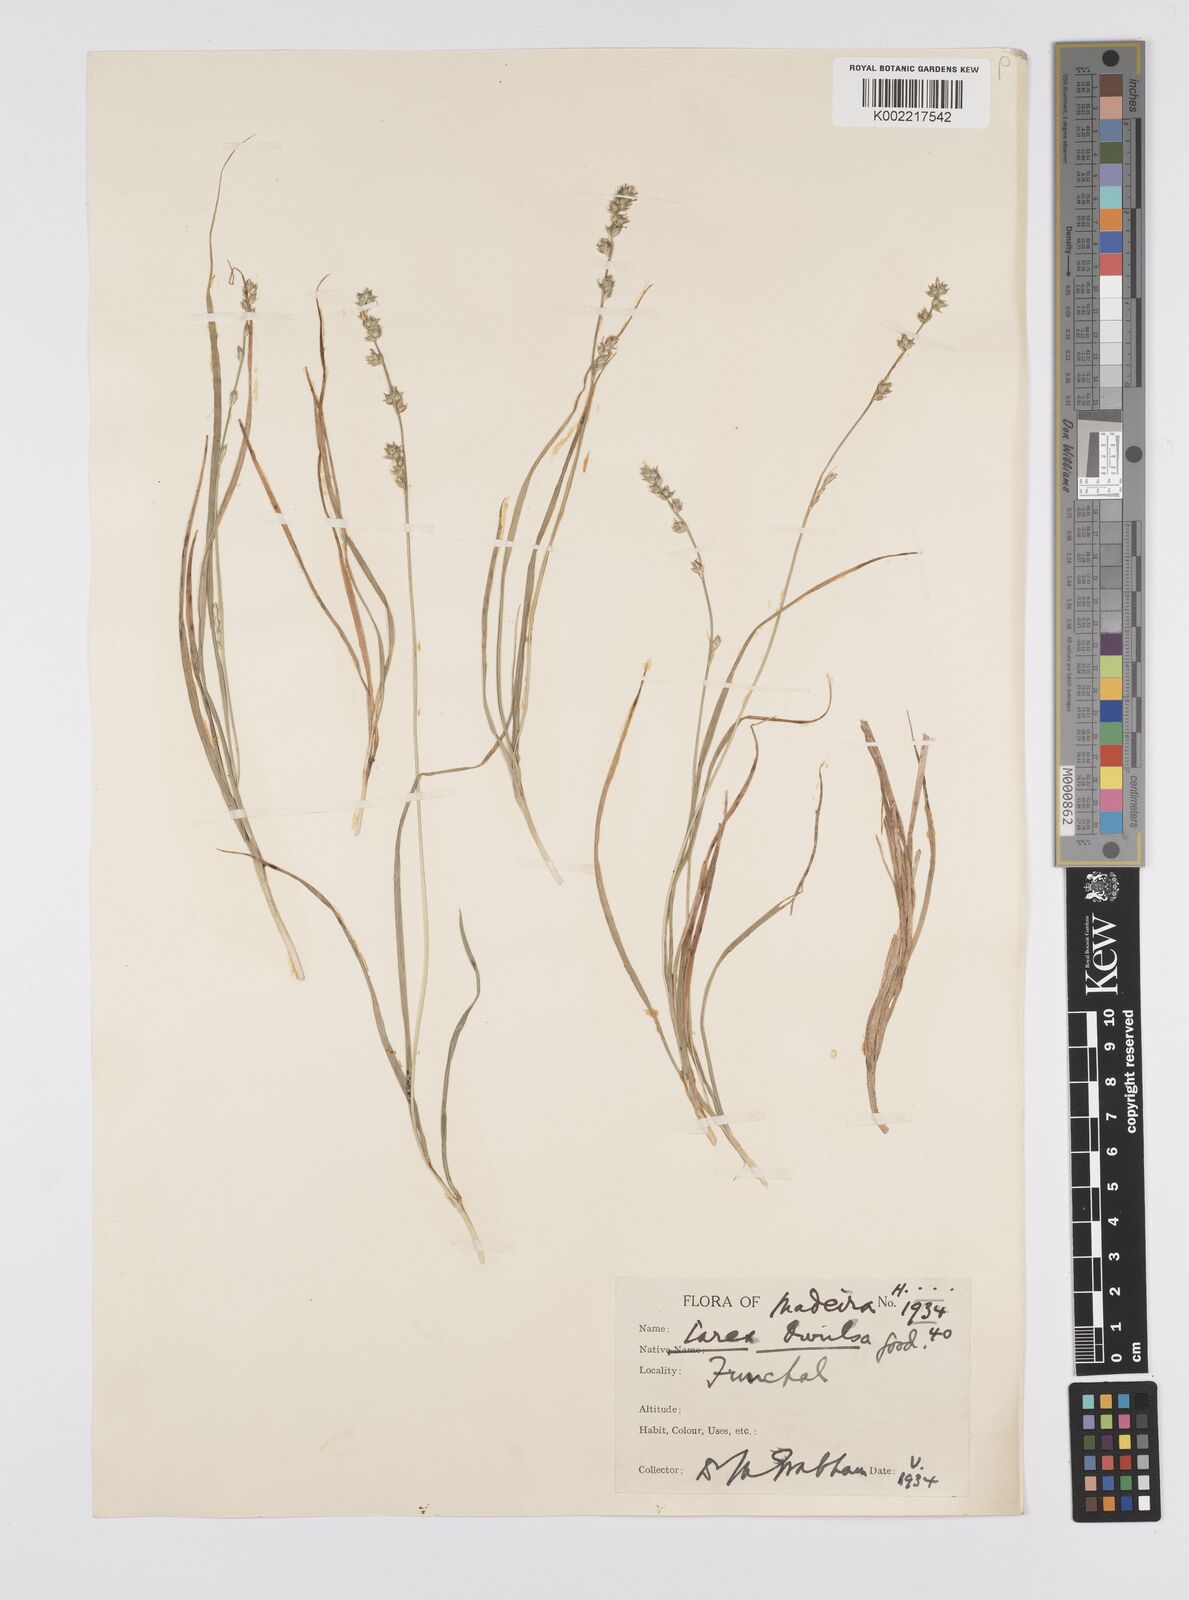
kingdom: Plantae
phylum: Tracheophyta
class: Liliopsida
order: Poales
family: Cyperaceae
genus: Carex
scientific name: Carex divulsa
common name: Grassland sedge
